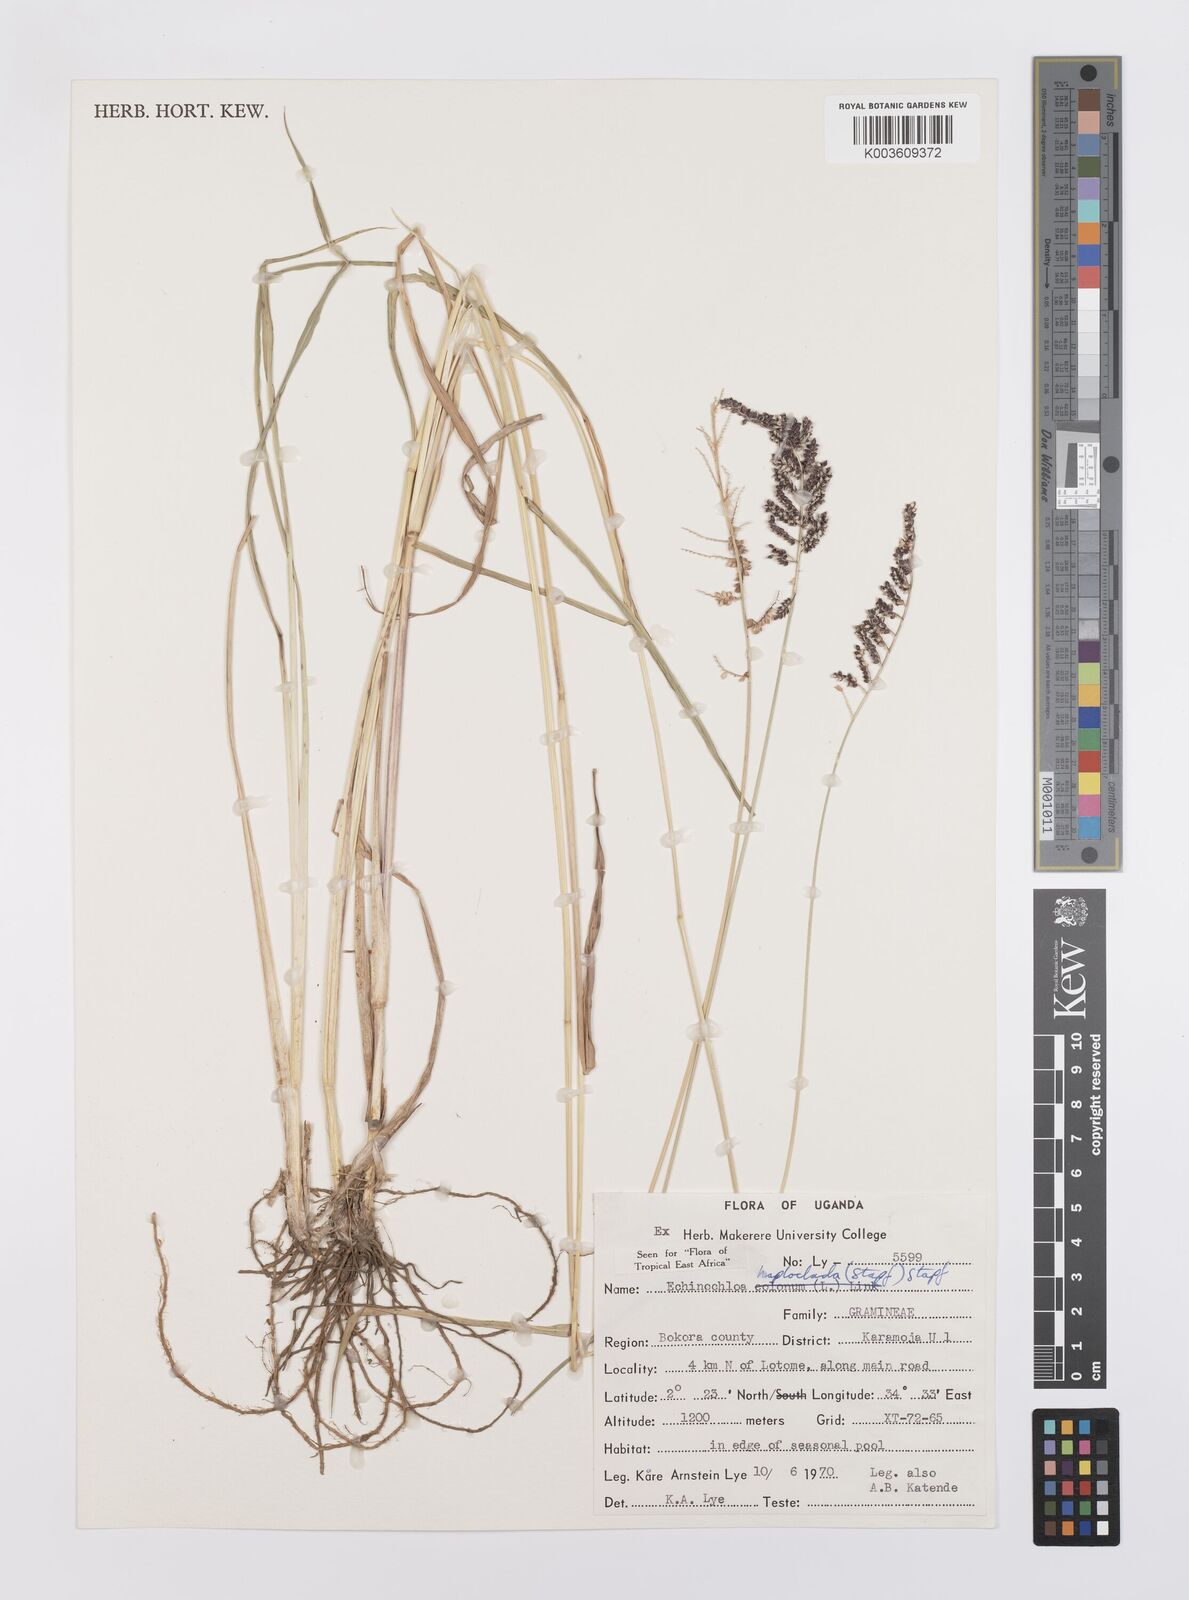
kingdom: Plantae
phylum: Tracheophyta
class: Liliopsida
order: Poales
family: Poaceae
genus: Echinochloa
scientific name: Echinochloa haploclada
